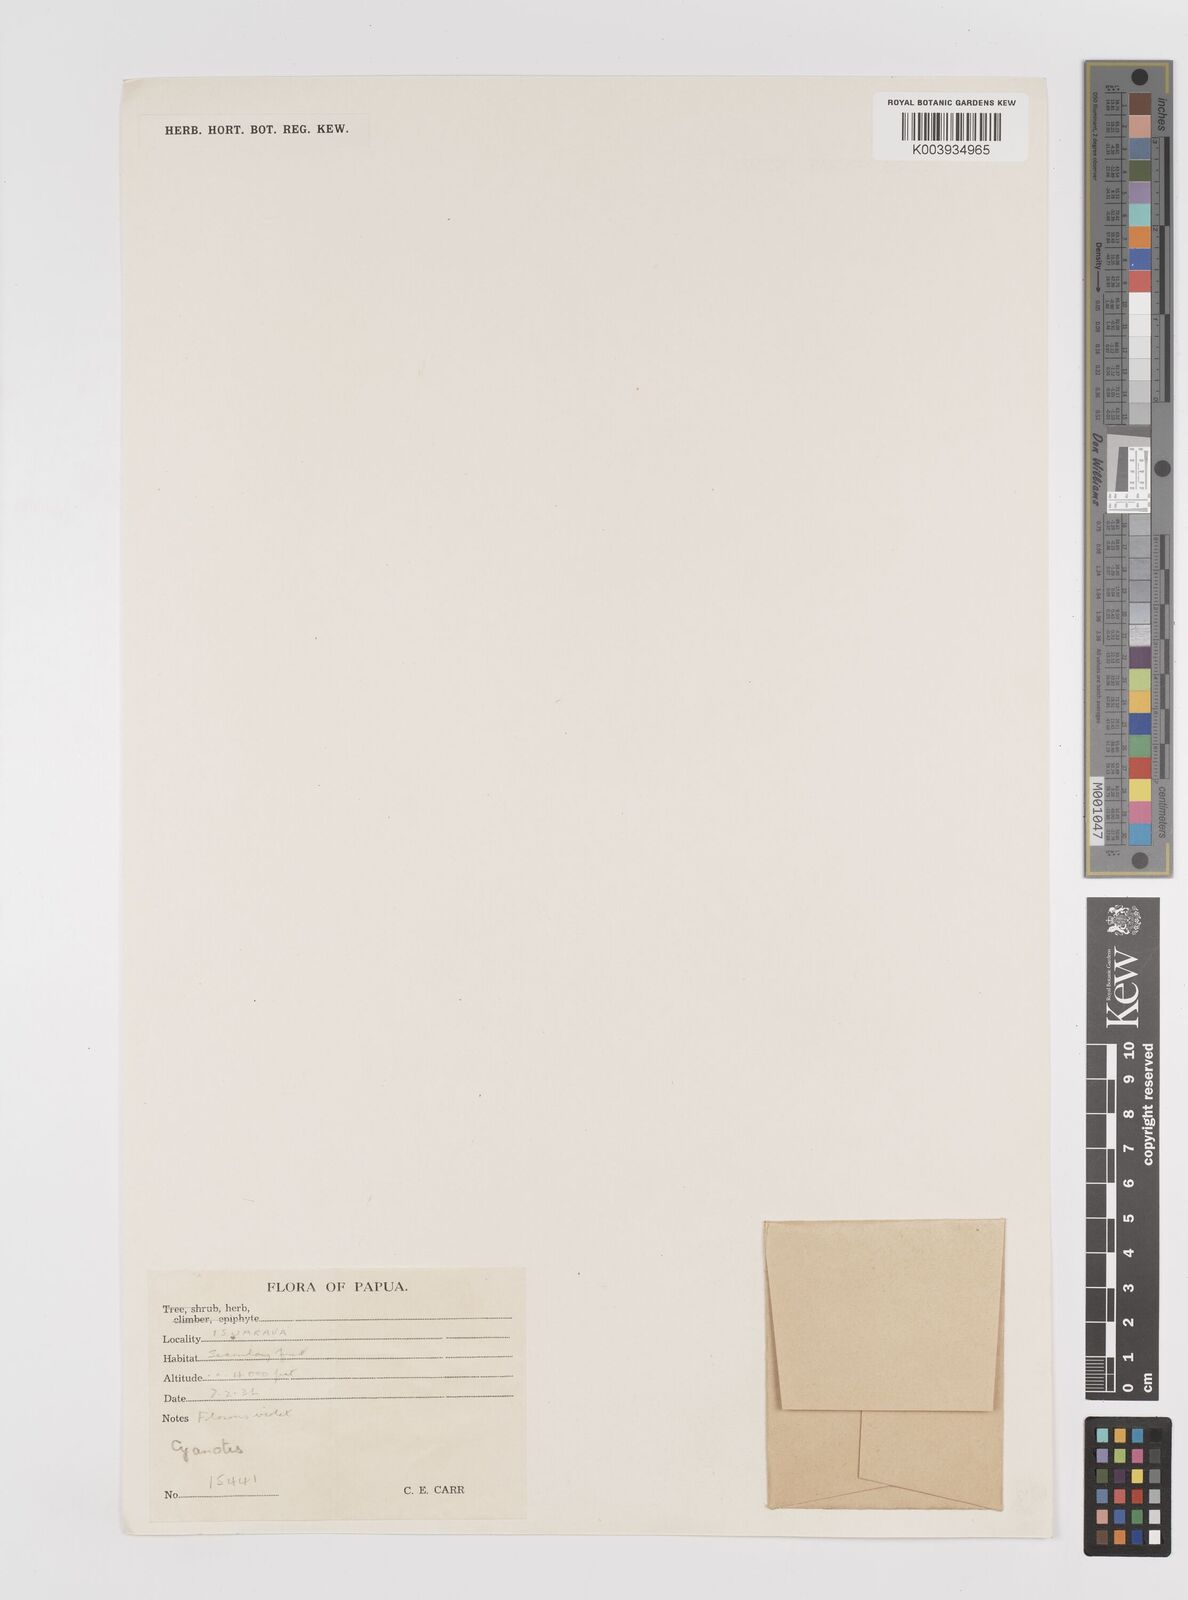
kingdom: Plantae
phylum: Tracheophyta
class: Liliopsida
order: Commelinales
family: Commelinaceae
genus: Cyanotis
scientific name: Cyanotis
